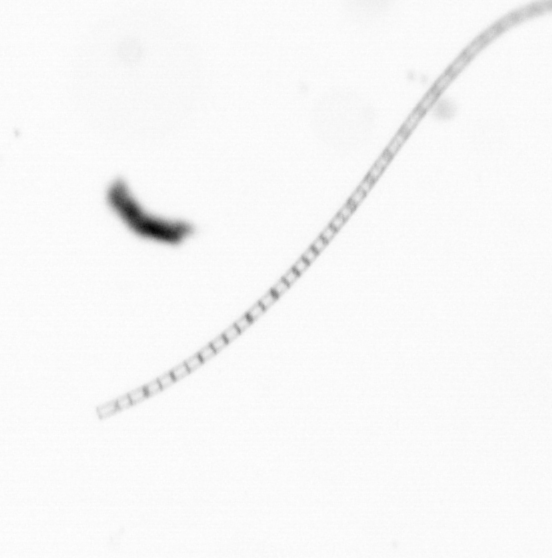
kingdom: Chromista
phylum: Ochrophyta
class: Bacillariophyceae
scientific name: Bacillariophyceae
